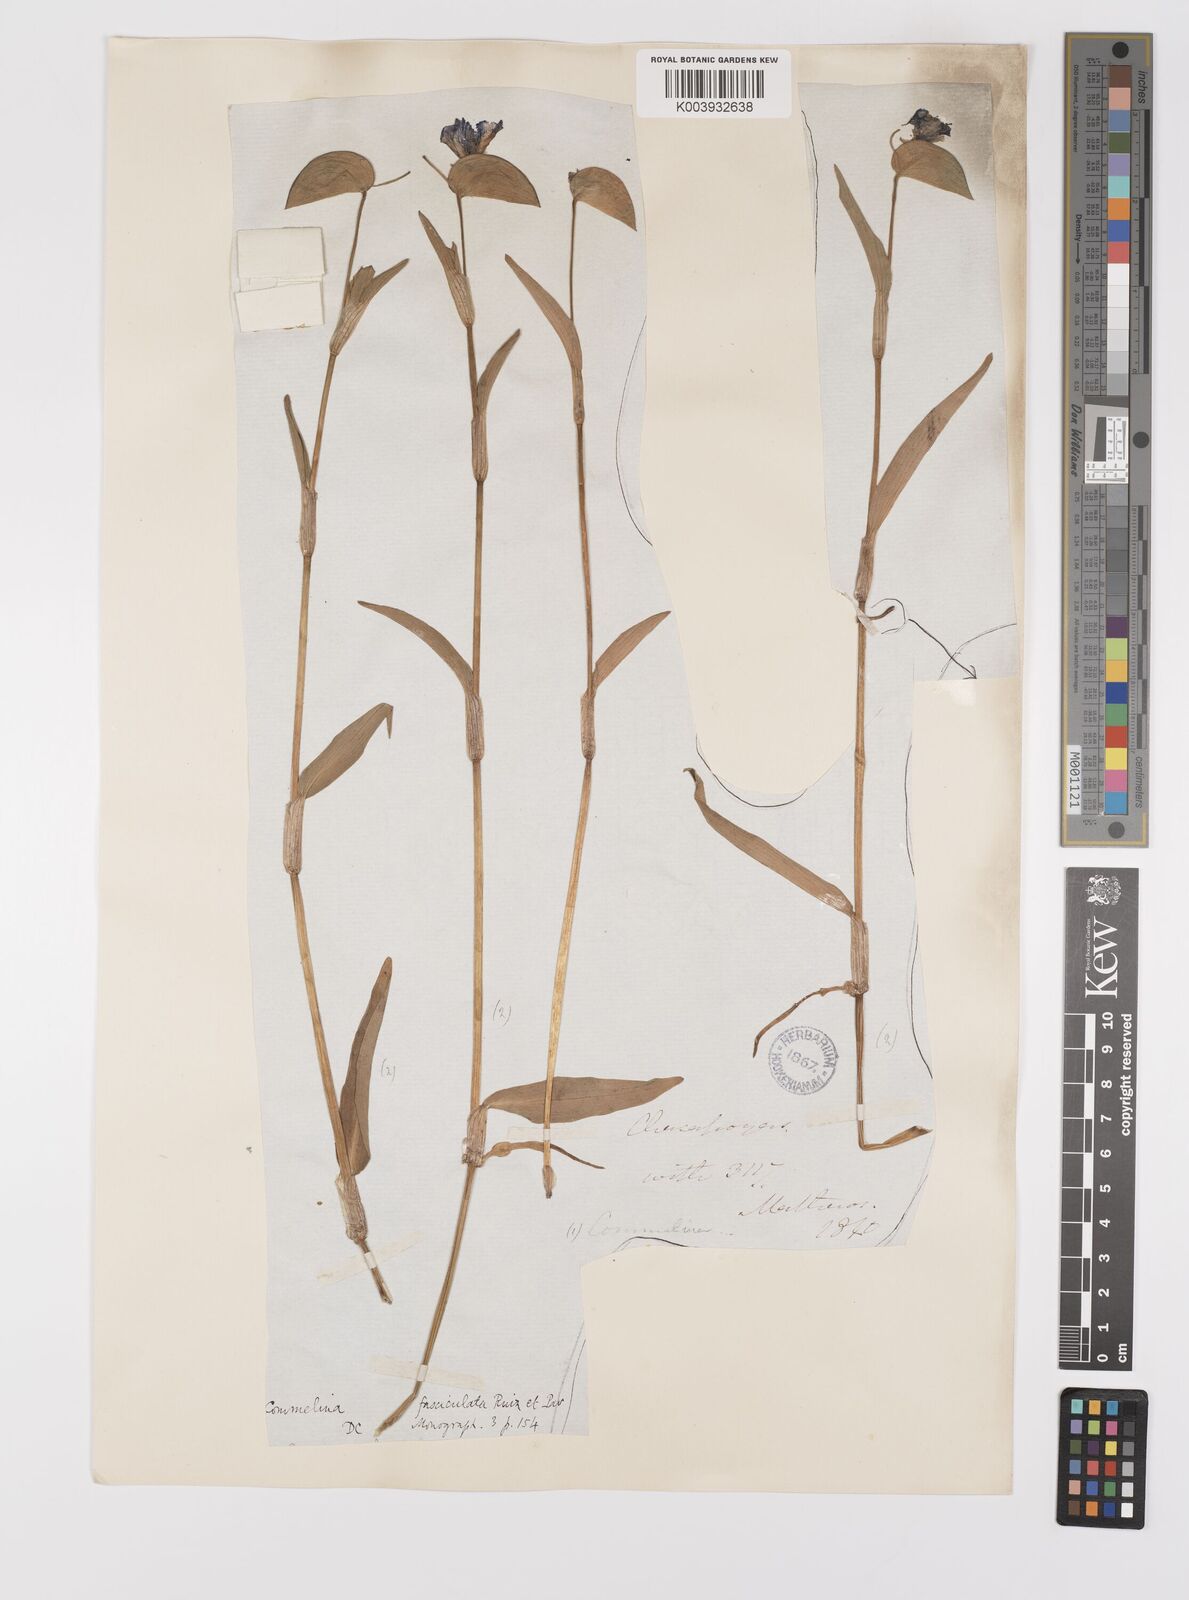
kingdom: Plantae
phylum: Tracheophyta
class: Liliopsida
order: Commelinales
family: Commelinaceae
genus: Commelina
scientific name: Commelina tuberosa
